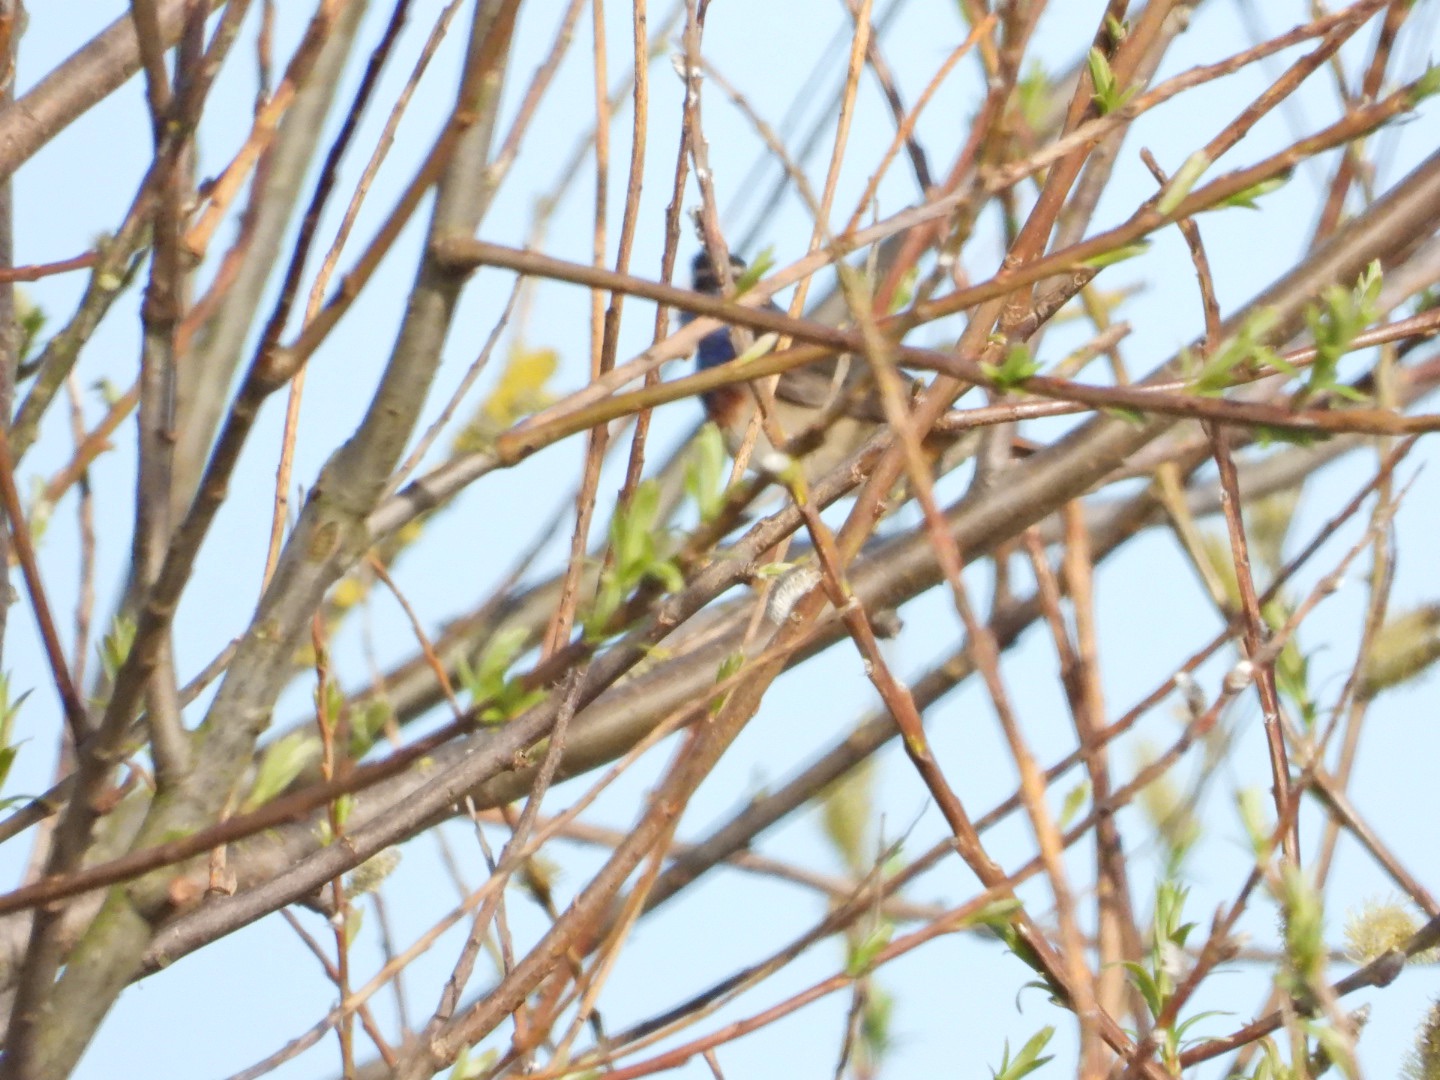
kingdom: Animalia
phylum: Chordata
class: Aves
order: Passeriformes
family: Muscicapidae
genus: Luscinia
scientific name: Luscinia svecica
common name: Sydlig blåhals
